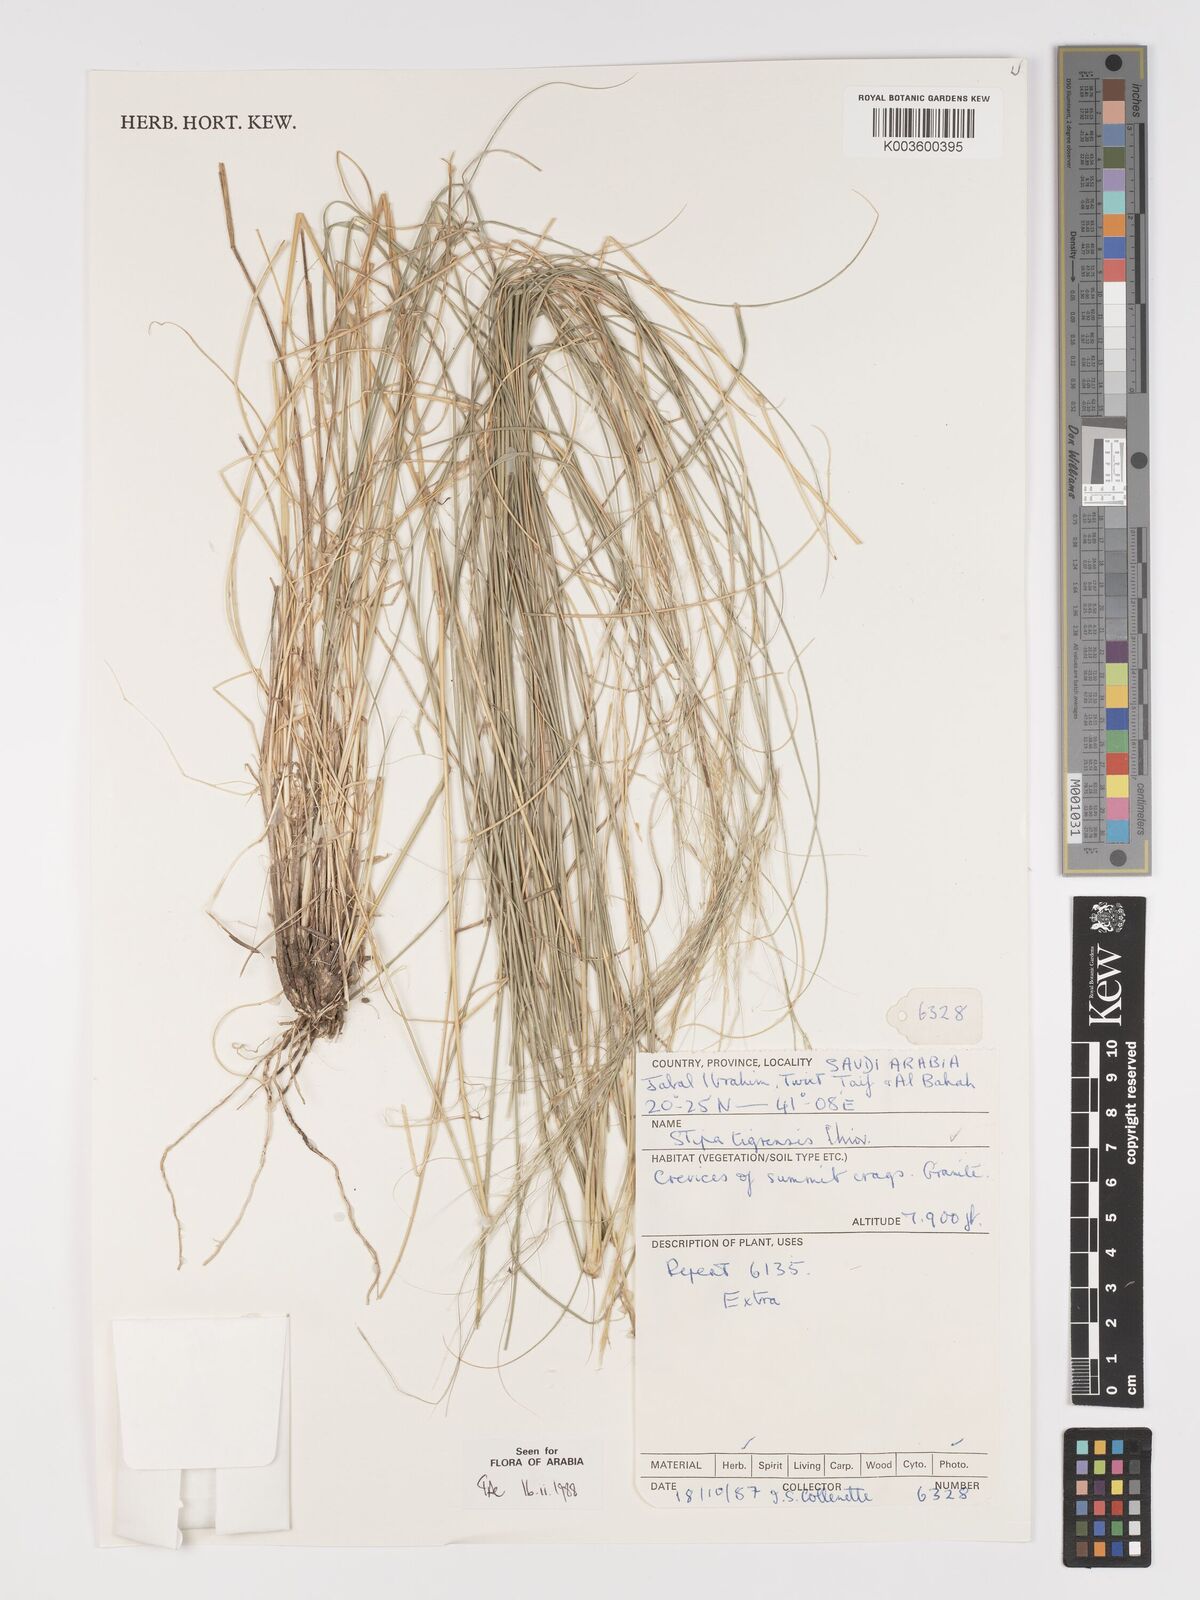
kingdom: Plantae
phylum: Tracheophyta
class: Liliopsida
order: Poales
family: Poaceae
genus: Stipa
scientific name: Stipa tigrensis
